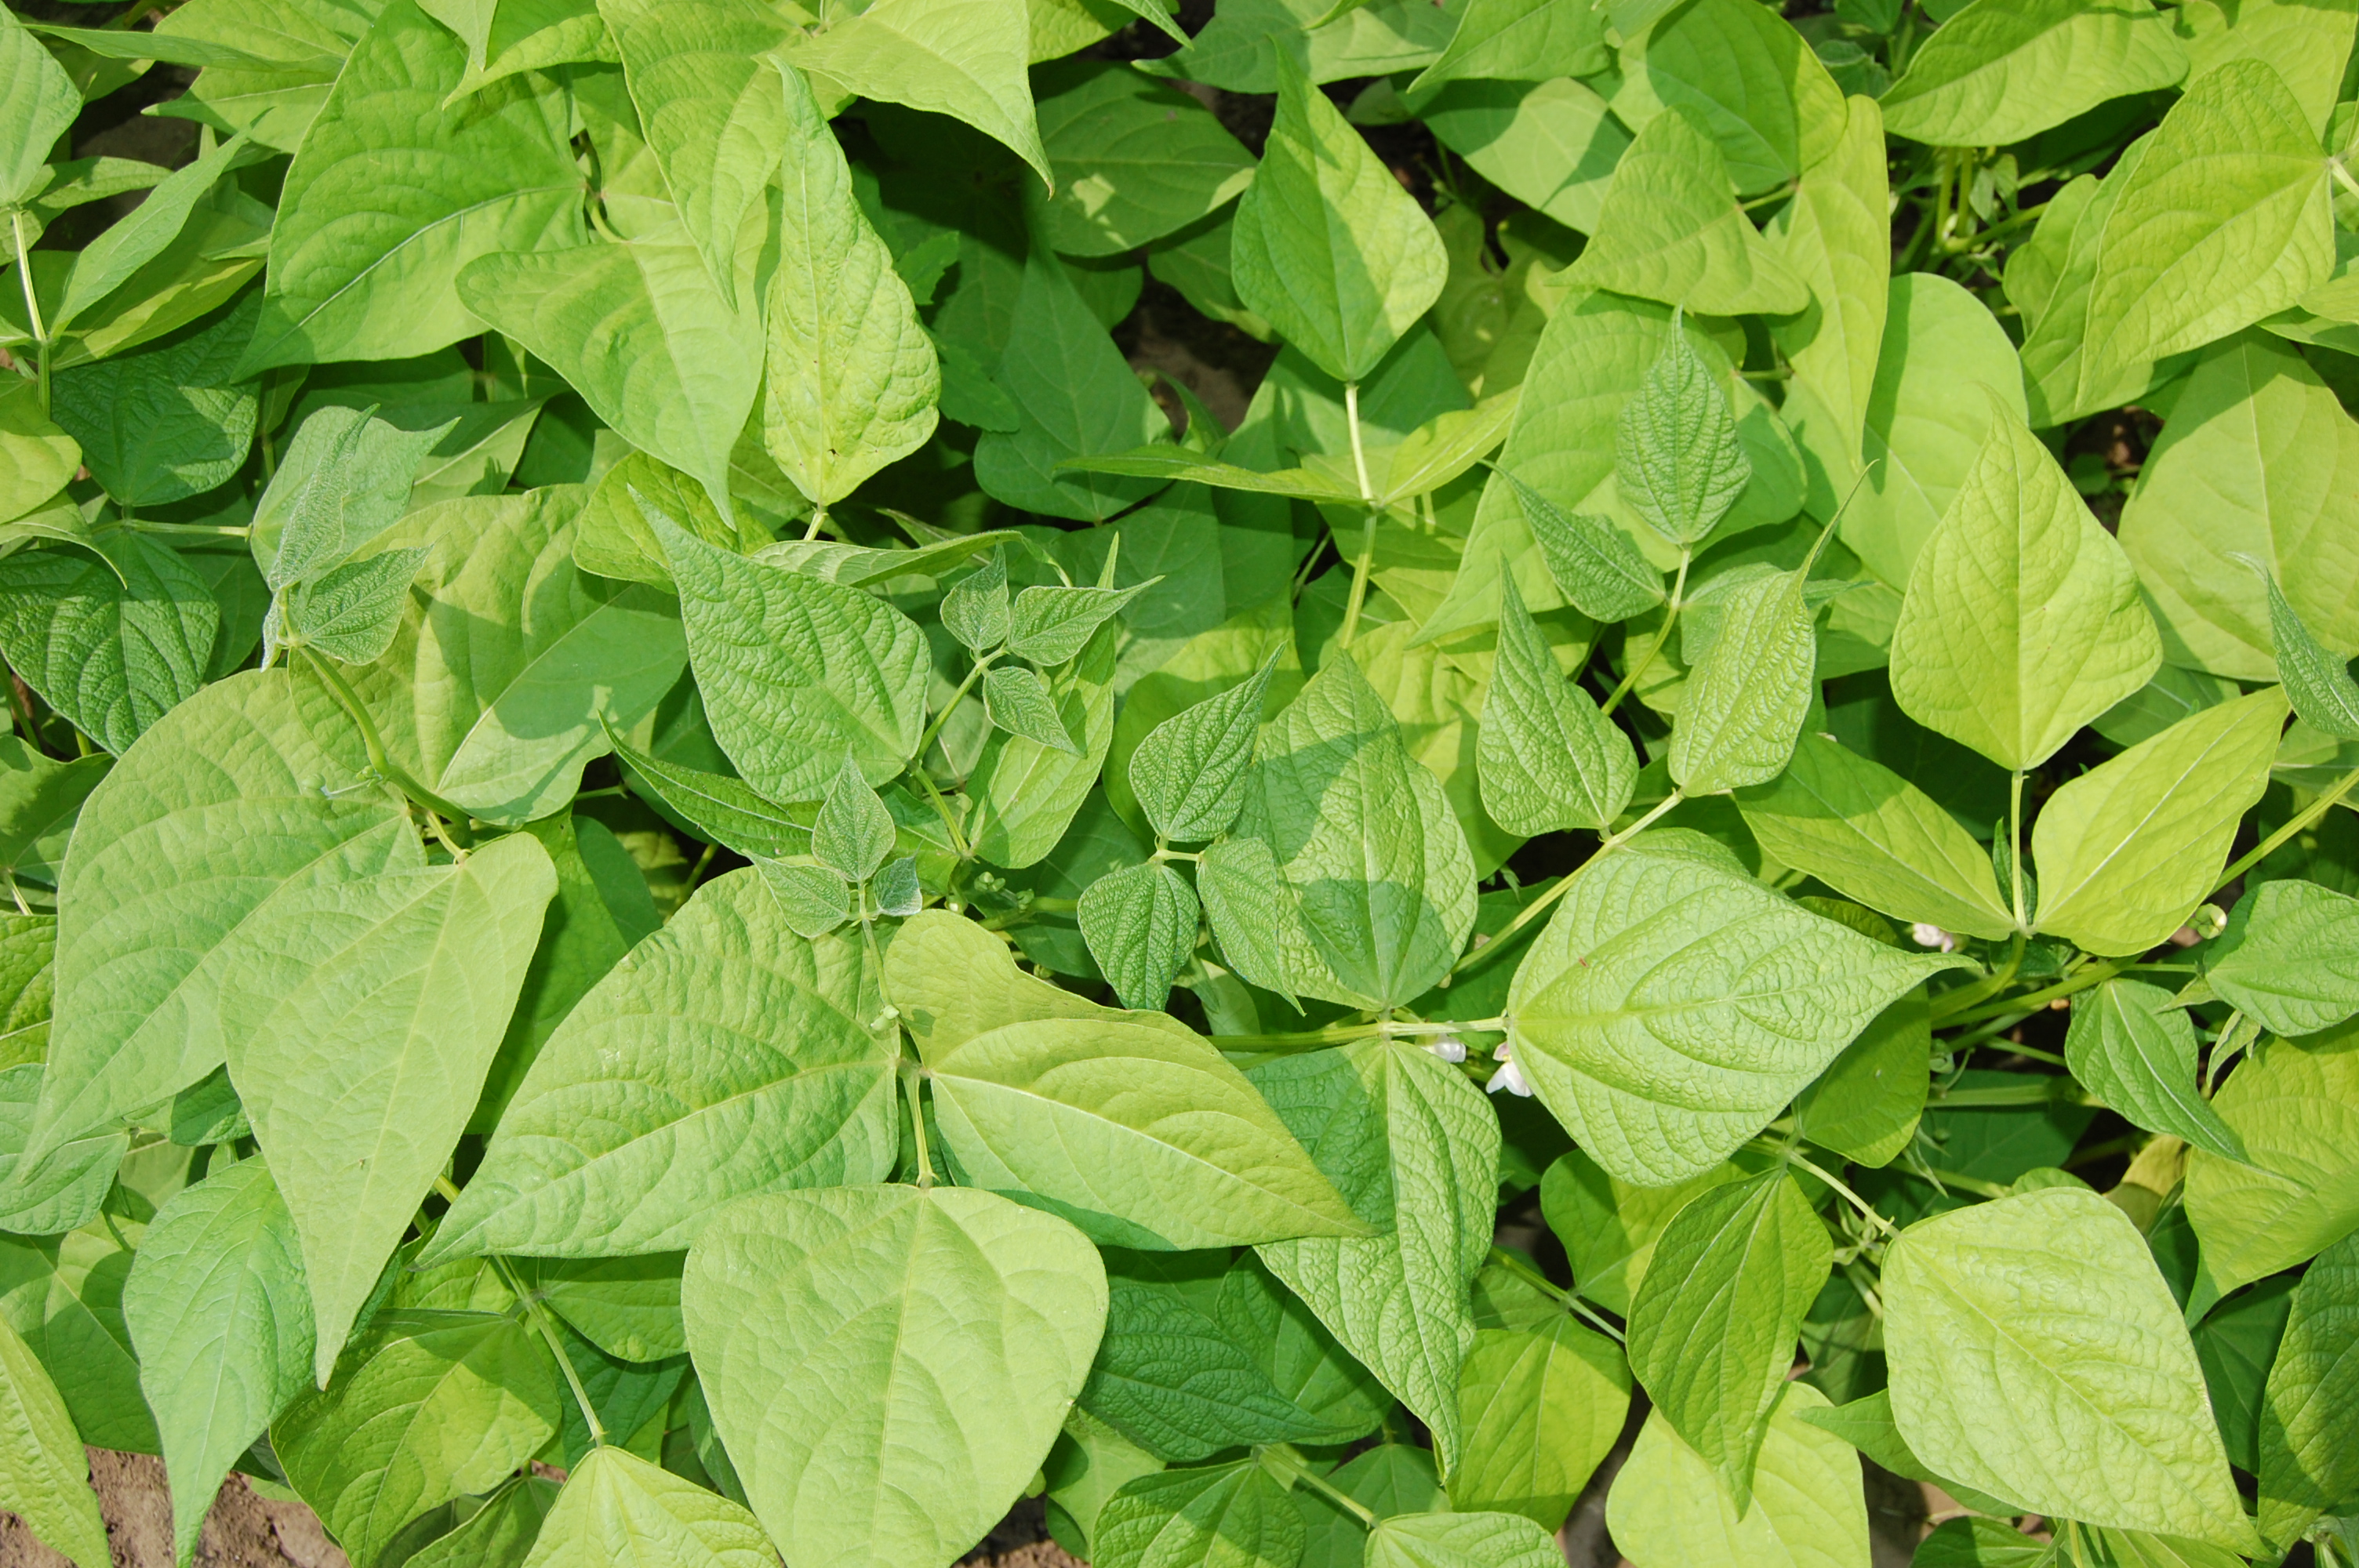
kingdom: Plantae
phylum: Tracheophyta
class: Magnoliopsida
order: Fabales
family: Fabaceae
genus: Phaseolus
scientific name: Phaseolus vulgaris
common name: Bean
